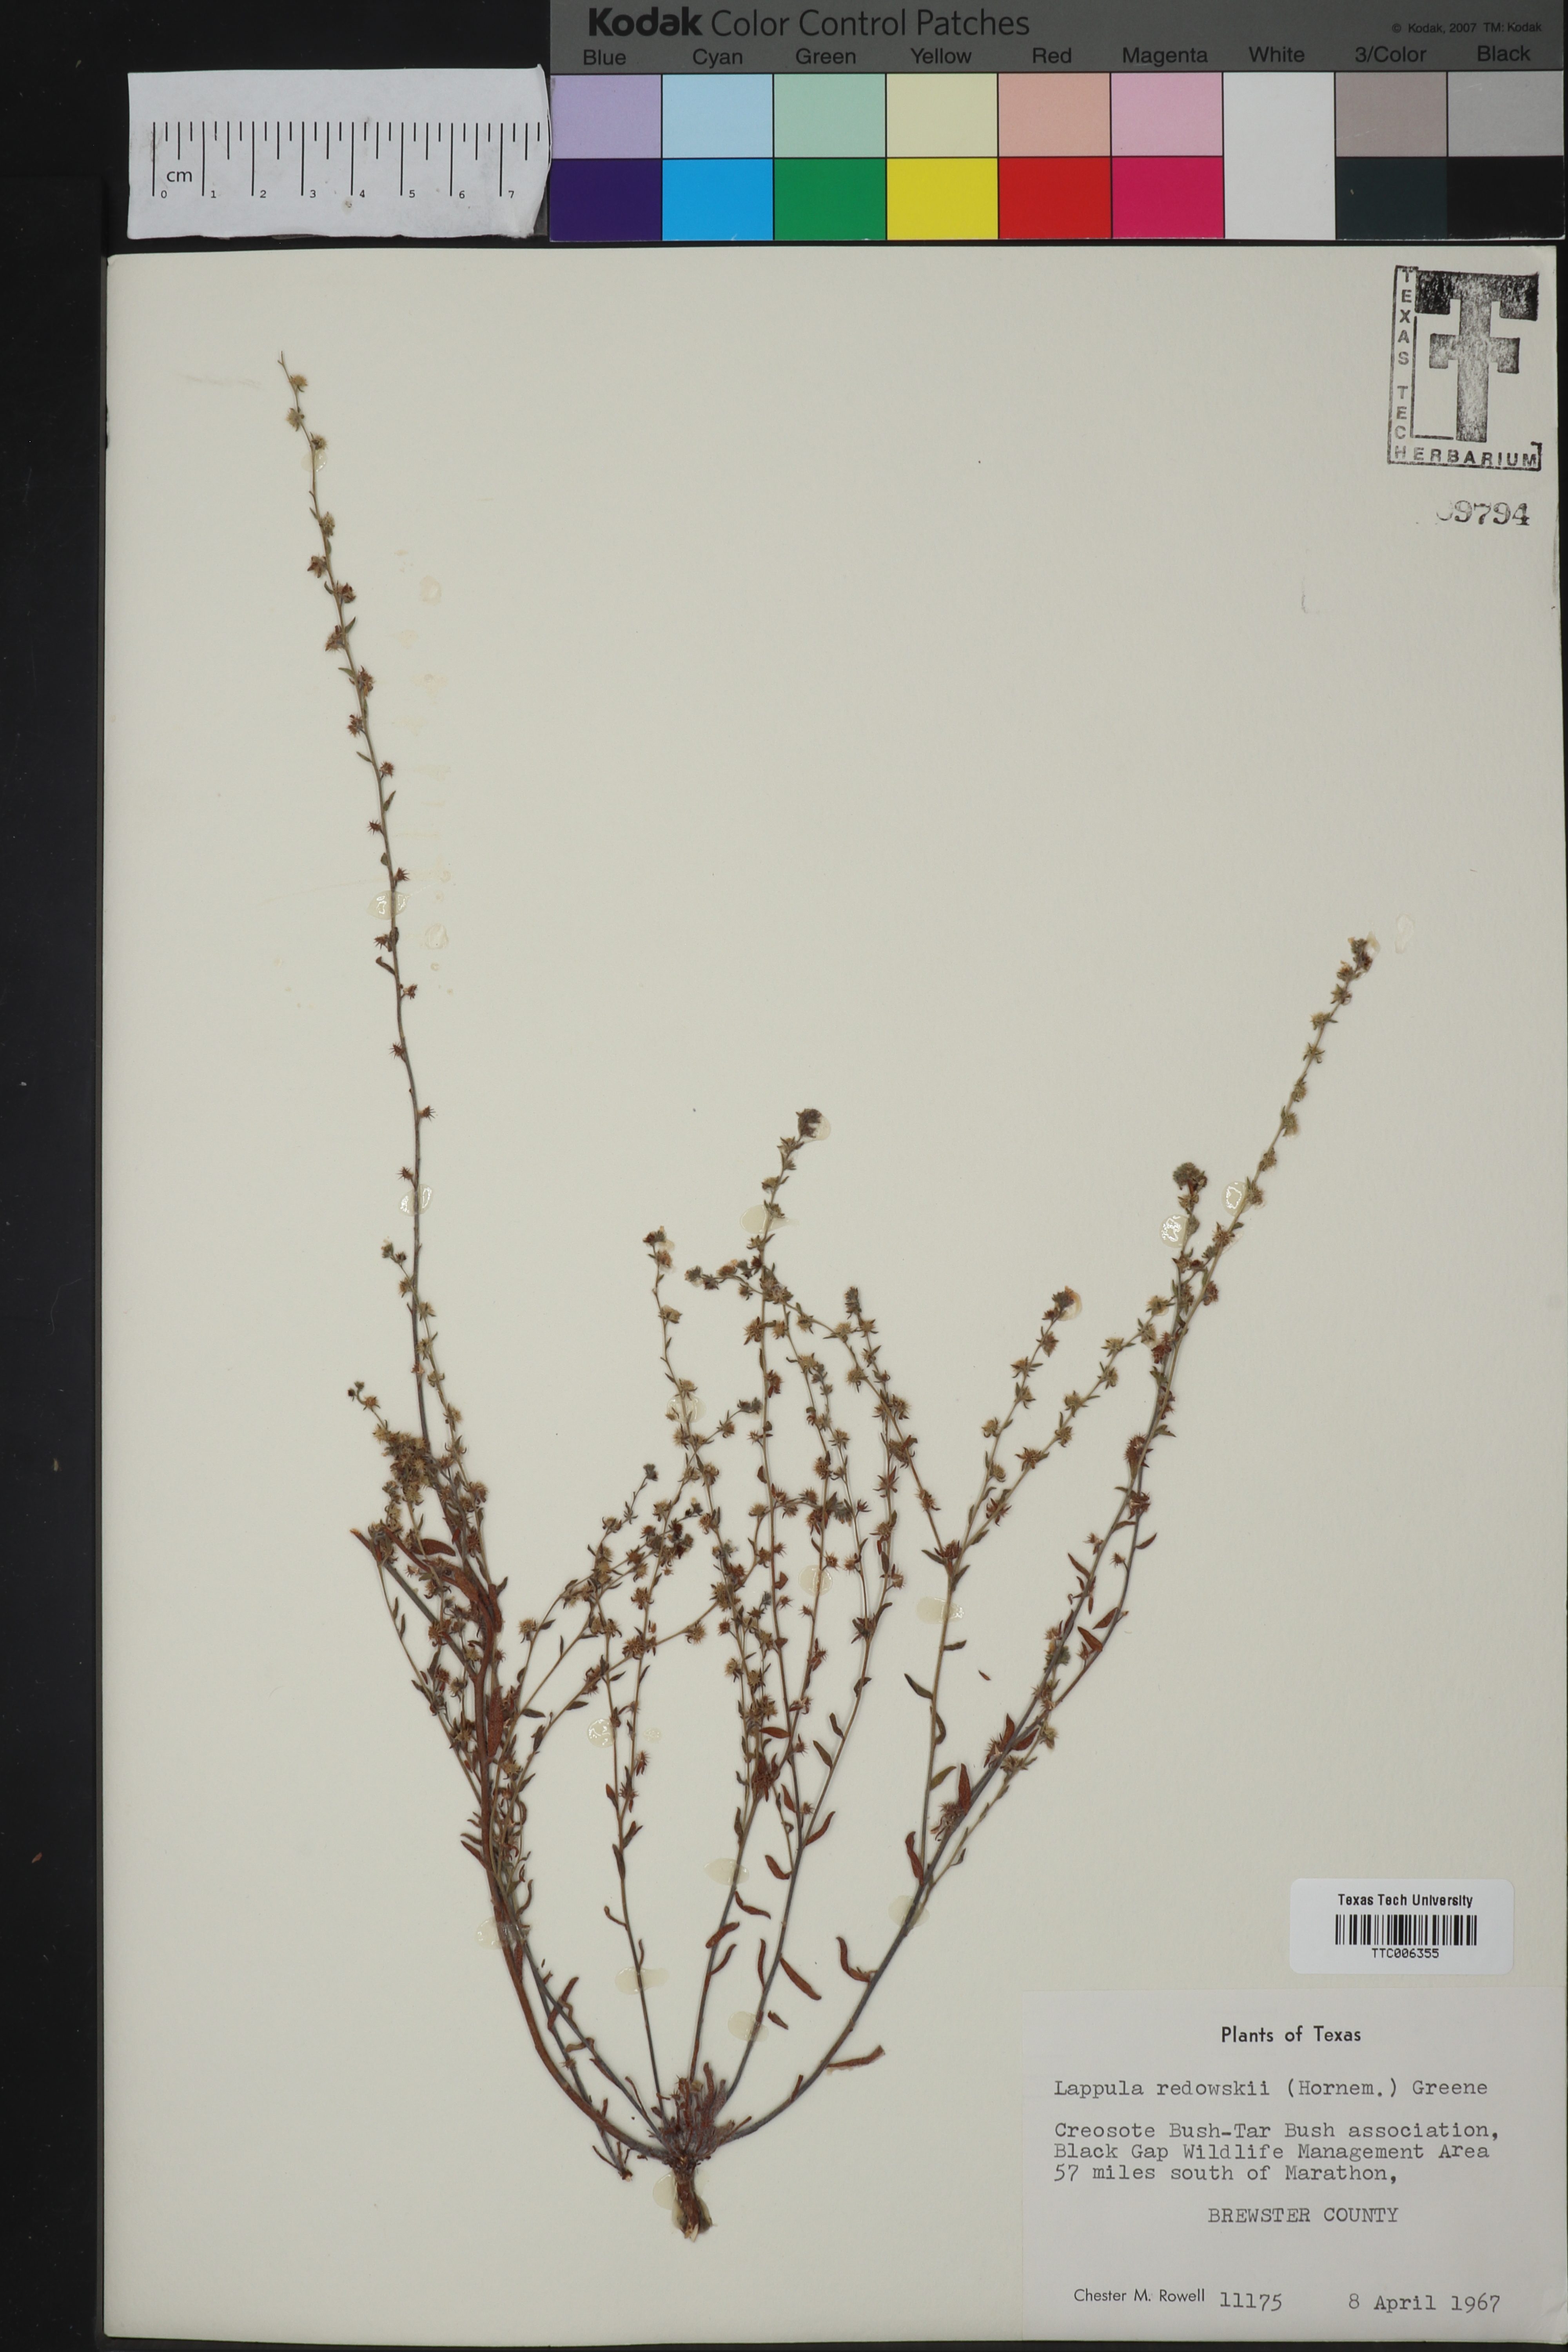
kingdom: Plantae
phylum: Tracheophyta
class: Magnoliopsida
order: Boraginales
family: Boraginaceae
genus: Lappula
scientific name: Lappula redowskii
